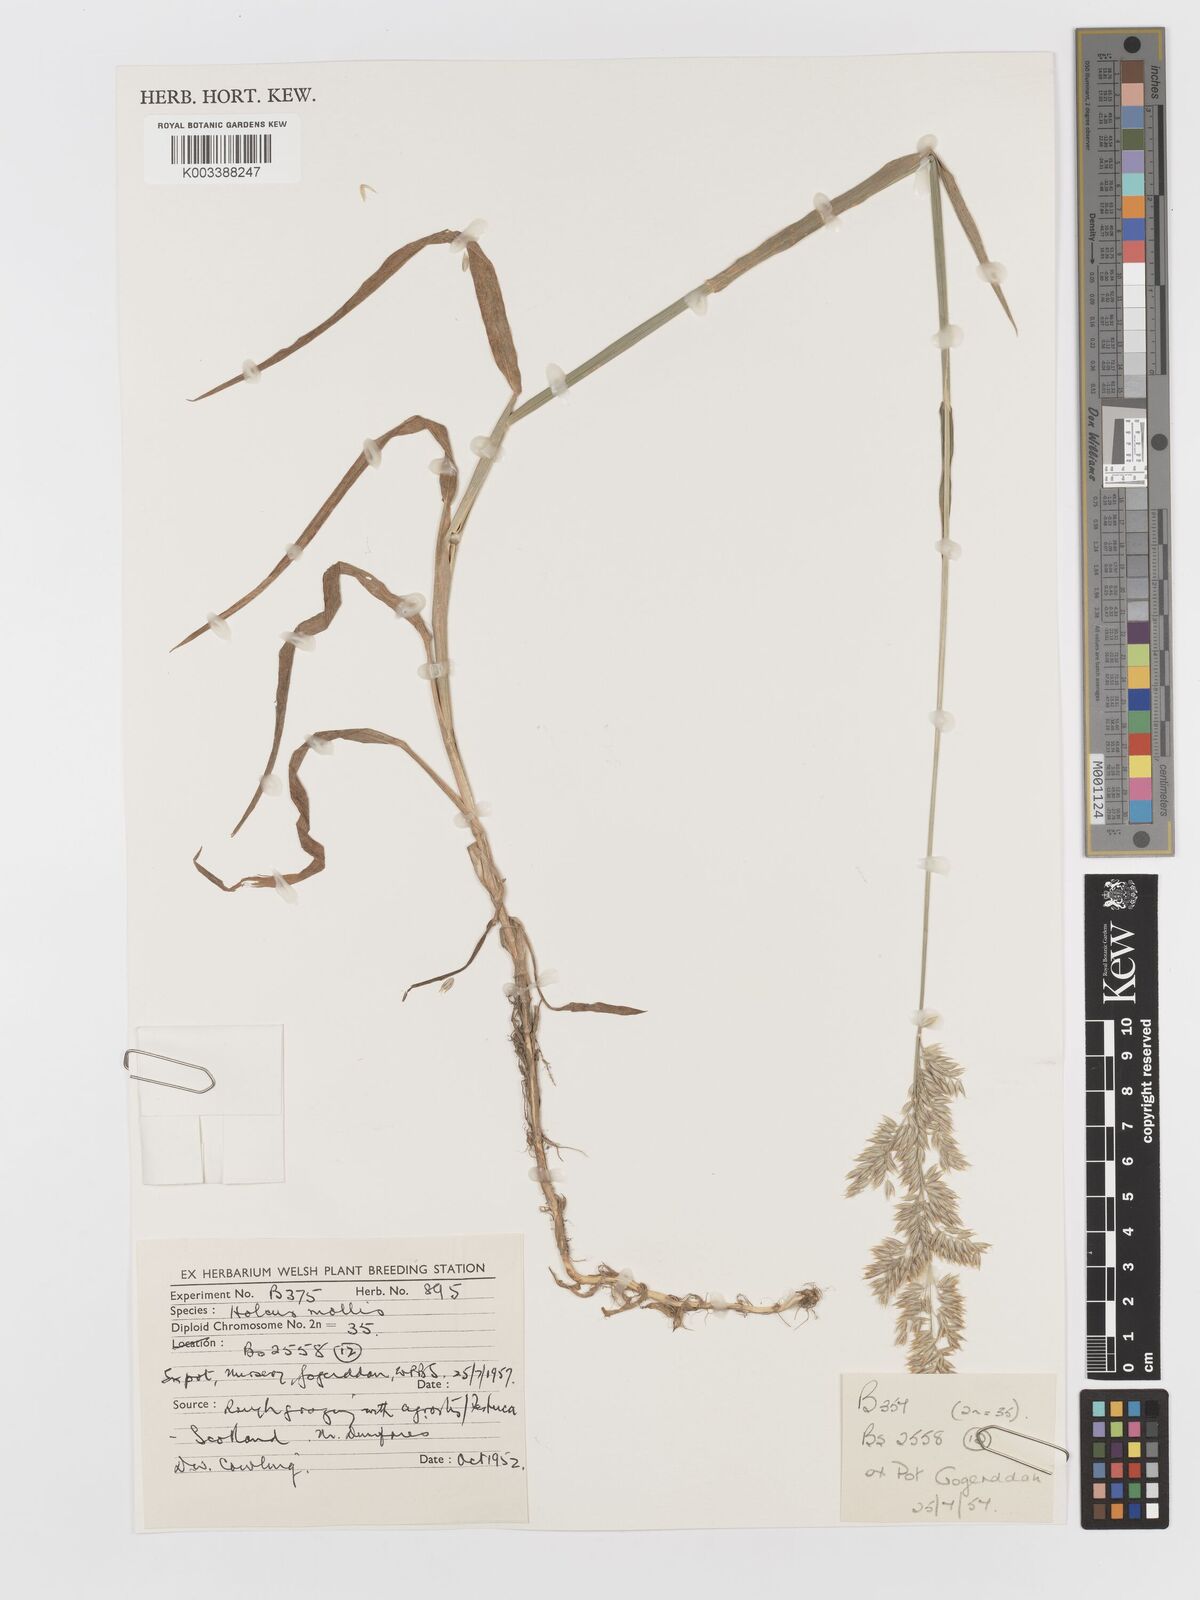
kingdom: Plantae
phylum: Tracheophyta
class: Liliopsida
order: Poales
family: Poaceae
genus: Holcus
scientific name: Holcus mollis
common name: Creeping velvetgrass
